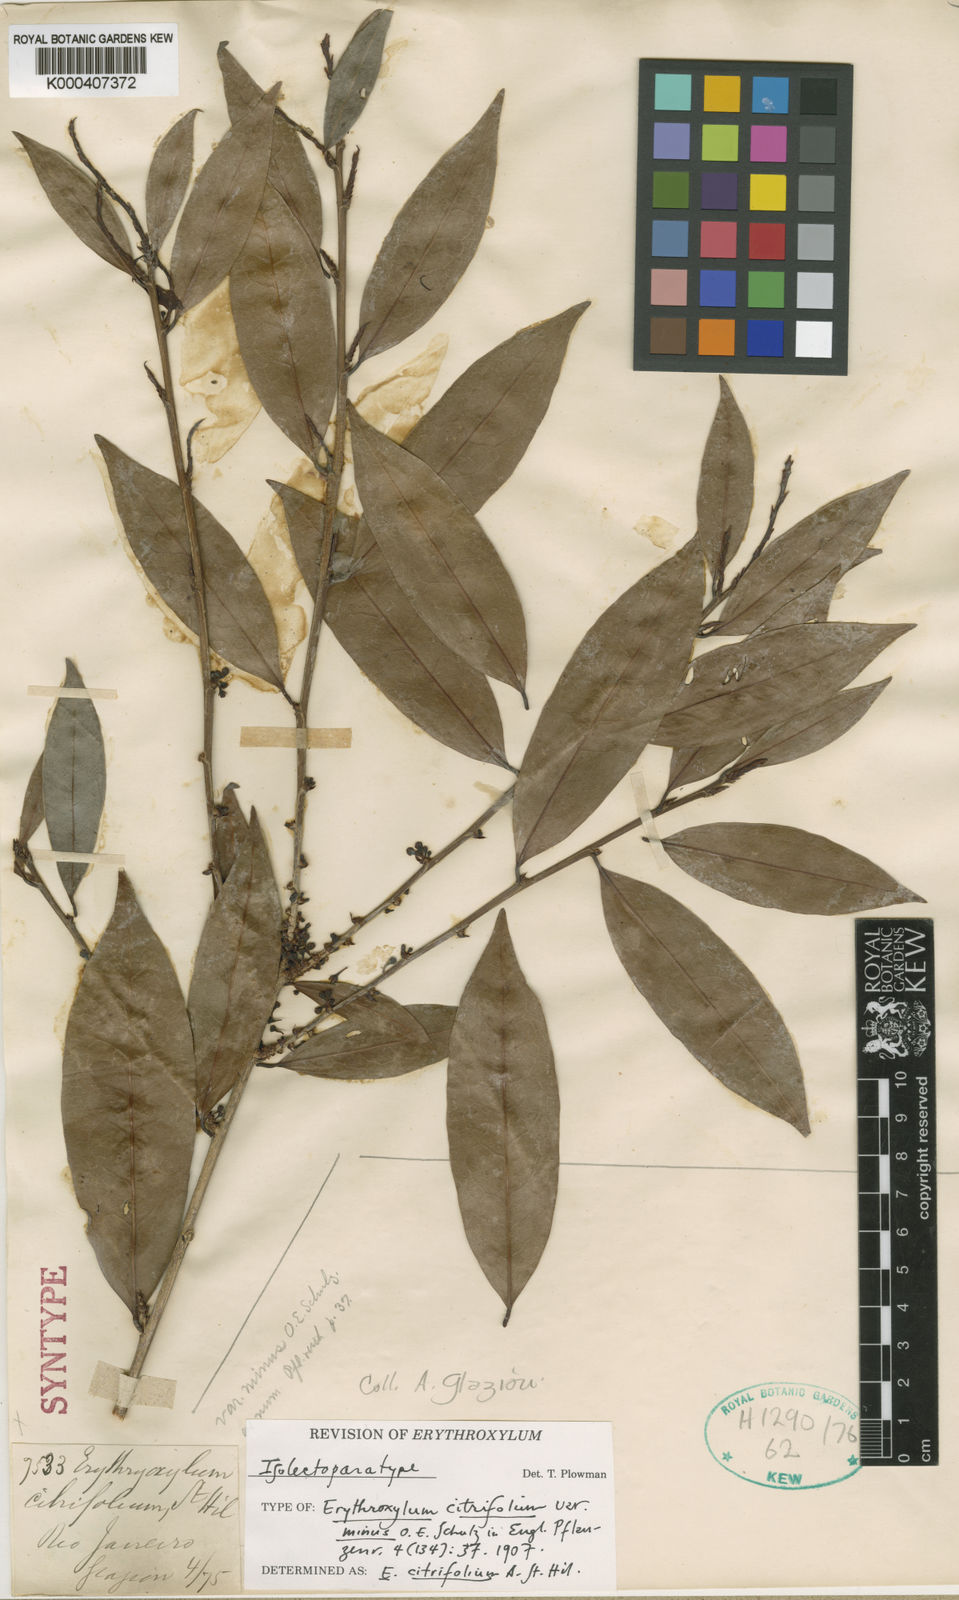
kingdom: Plantae
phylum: Tracheophyta
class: Magnoliopsida
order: Malpighiales
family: Erythroxylaceae
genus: Erythroxylum
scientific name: Erythroxylum citrifolium
